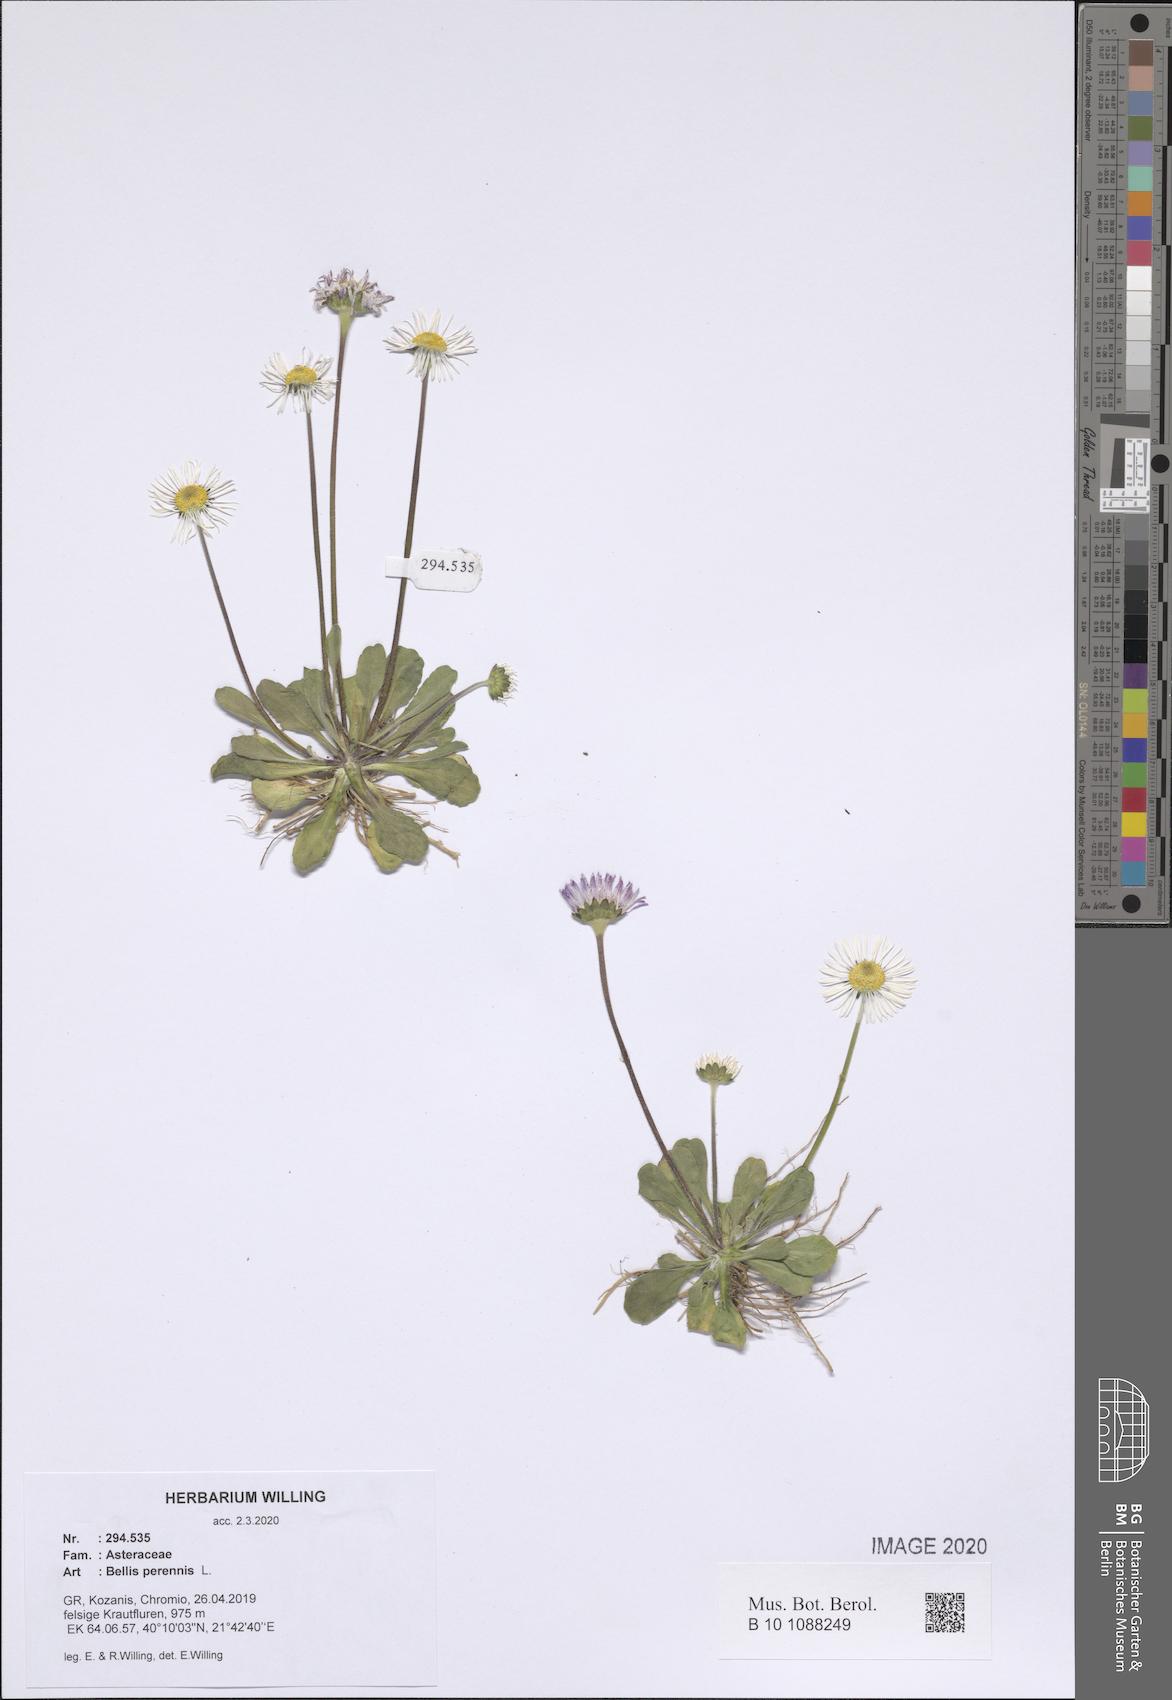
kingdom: Plantae
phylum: Tracheophyta
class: Magnoliopsida
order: Asterales
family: Asteraceae
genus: Bellis
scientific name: Bellis perennis
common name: Lawndaisy
